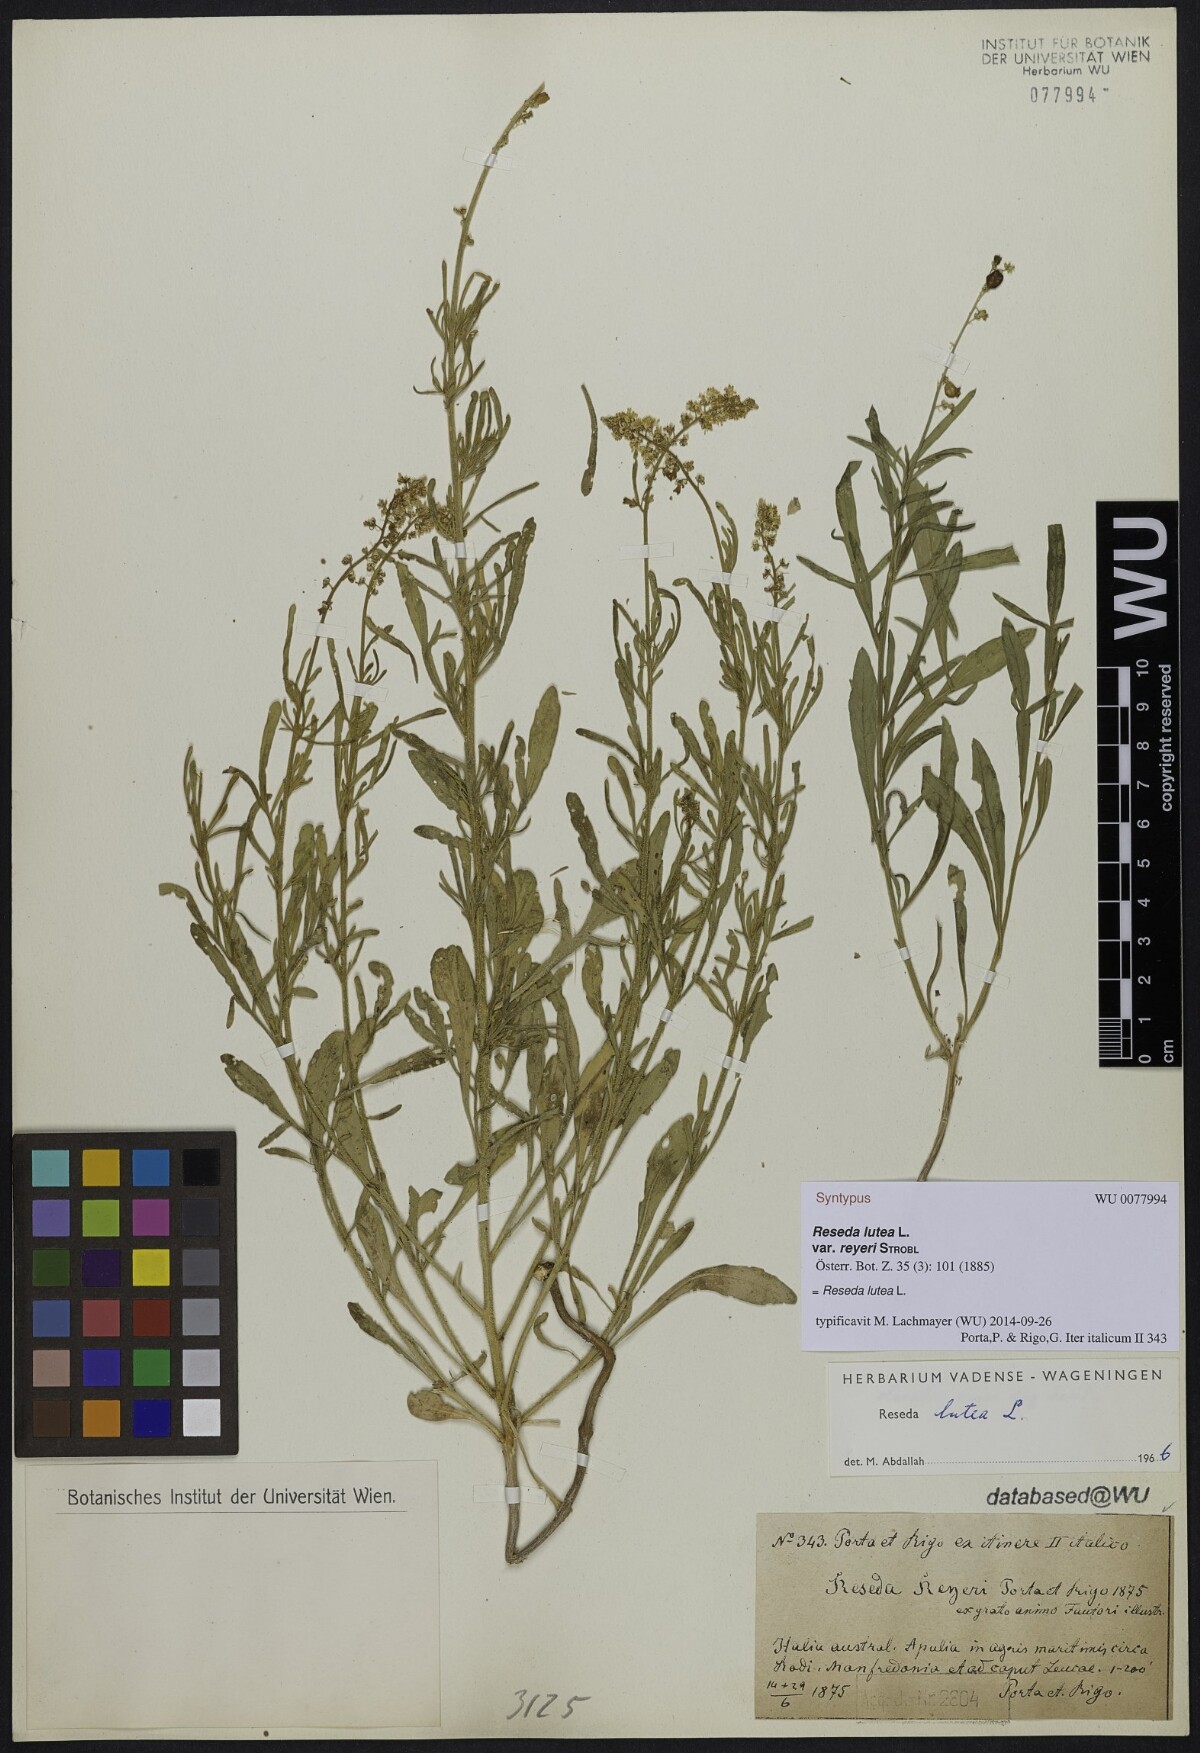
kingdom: Plantae
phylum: Tracheophyta
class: Magnoliopsida
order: Brassicales
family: Resedaceae
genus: Reseda
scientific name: Reseda lutea
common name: Wild mignonette
